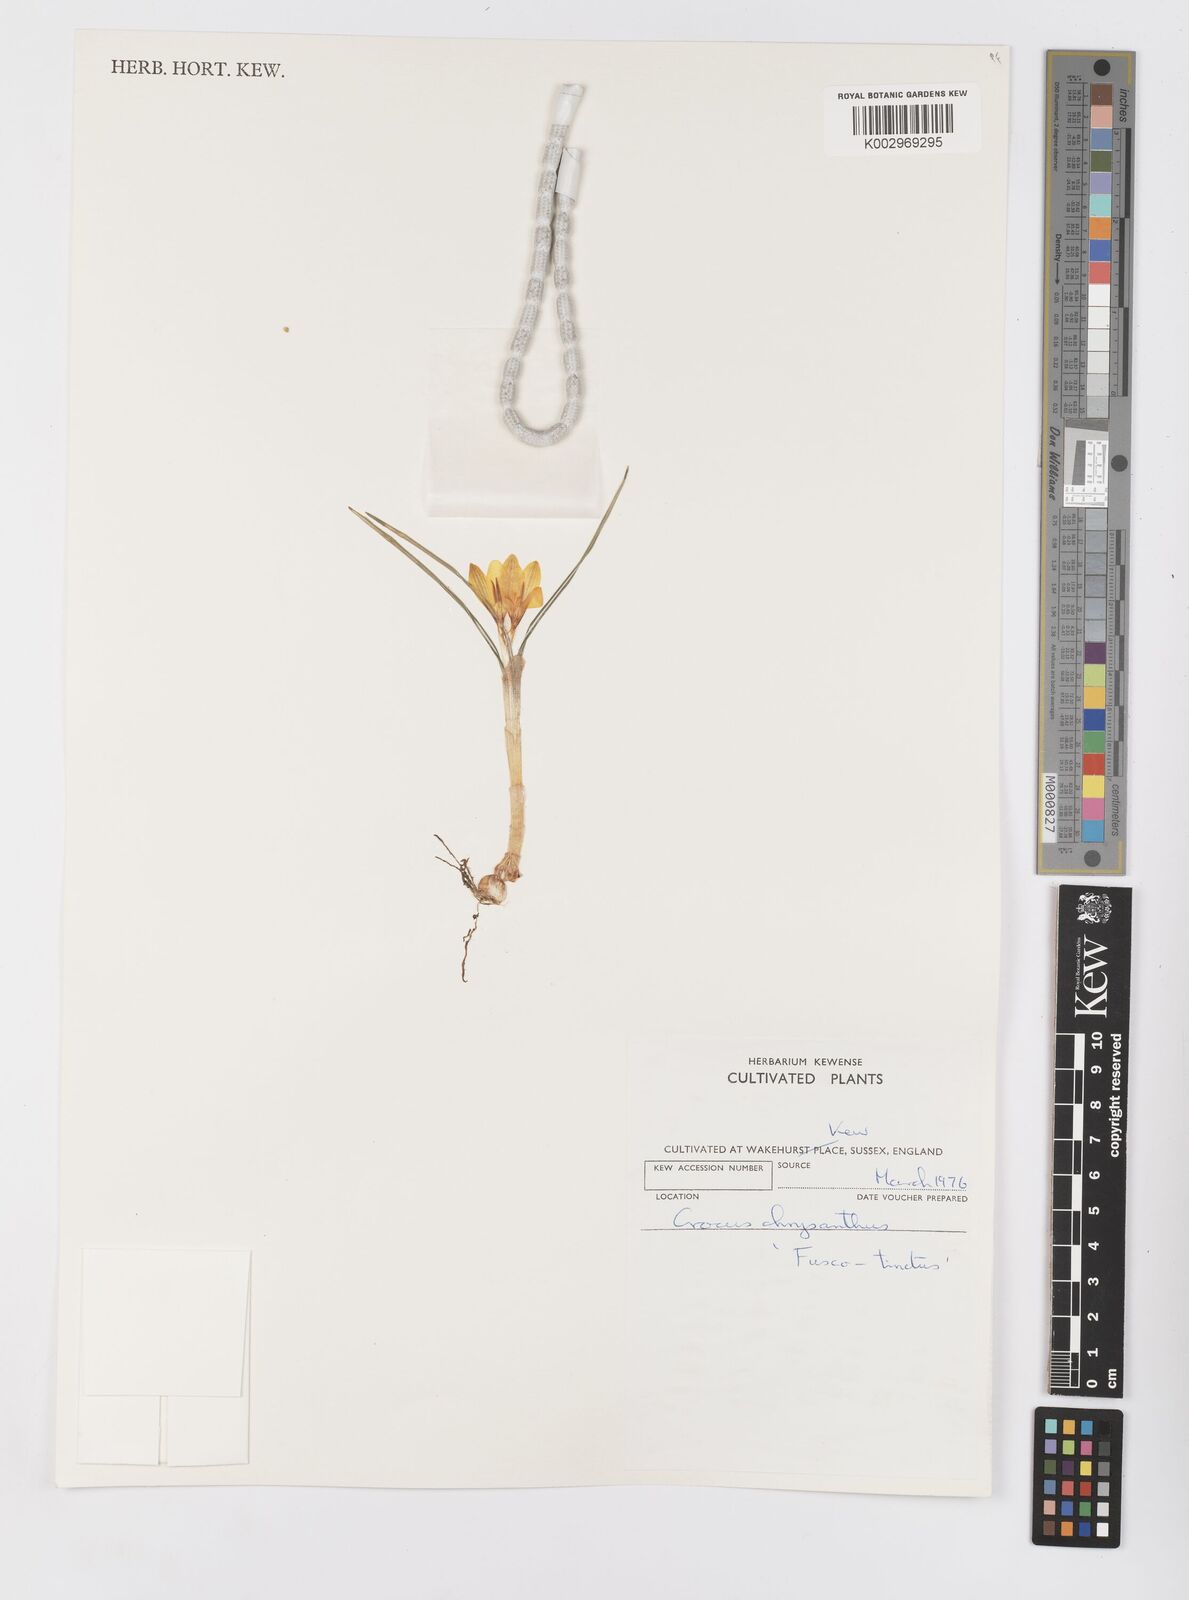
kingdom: Plantae
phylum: Tracheophyta
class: Liliopsida
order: Asparagales
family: Iridaceae
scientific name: Iridaceae
